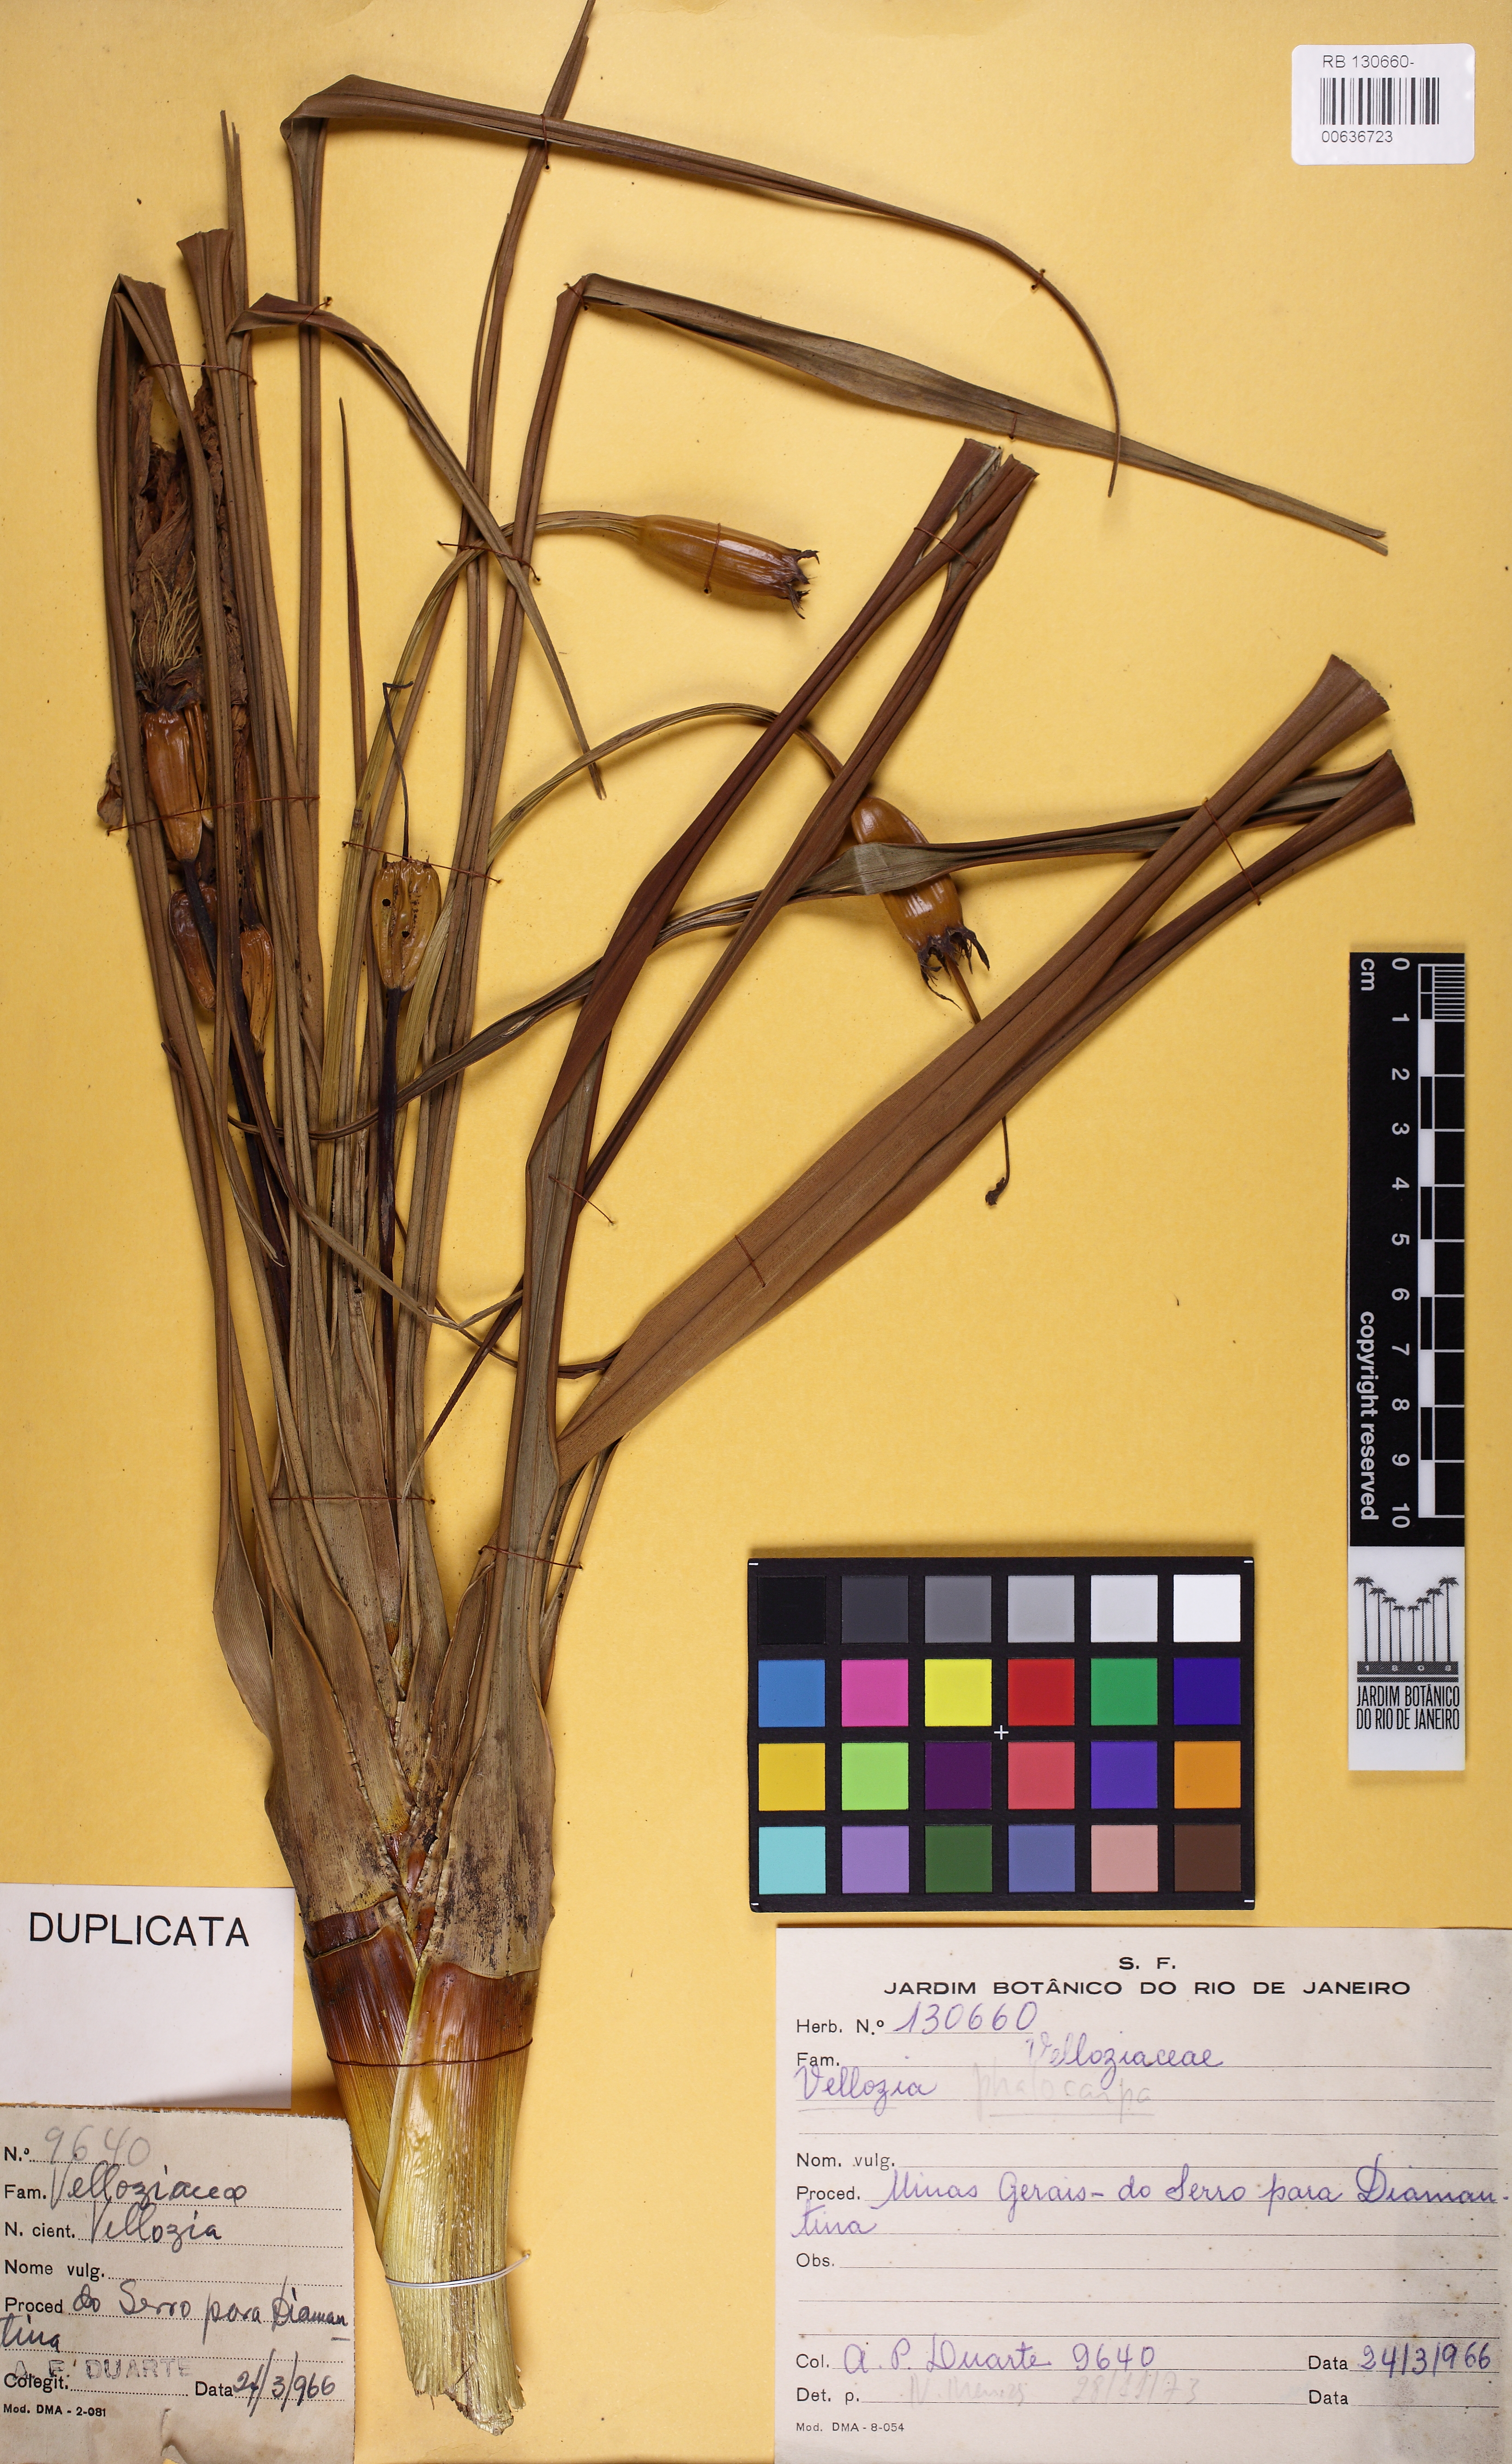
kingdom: Plantae
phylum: Tracheophyta
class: Liliopsida
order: Pandanales
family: Velloziaceae
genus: Vellozia
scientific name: Vellozia glabra
